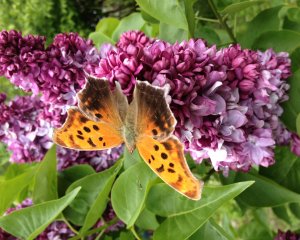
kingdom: Animalia
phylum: Arthropoda
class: Insecta
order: Lepidoptera
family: Nymphalidae
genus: Polygonia
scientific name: Polygonia interrogationis
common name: Question Mark
